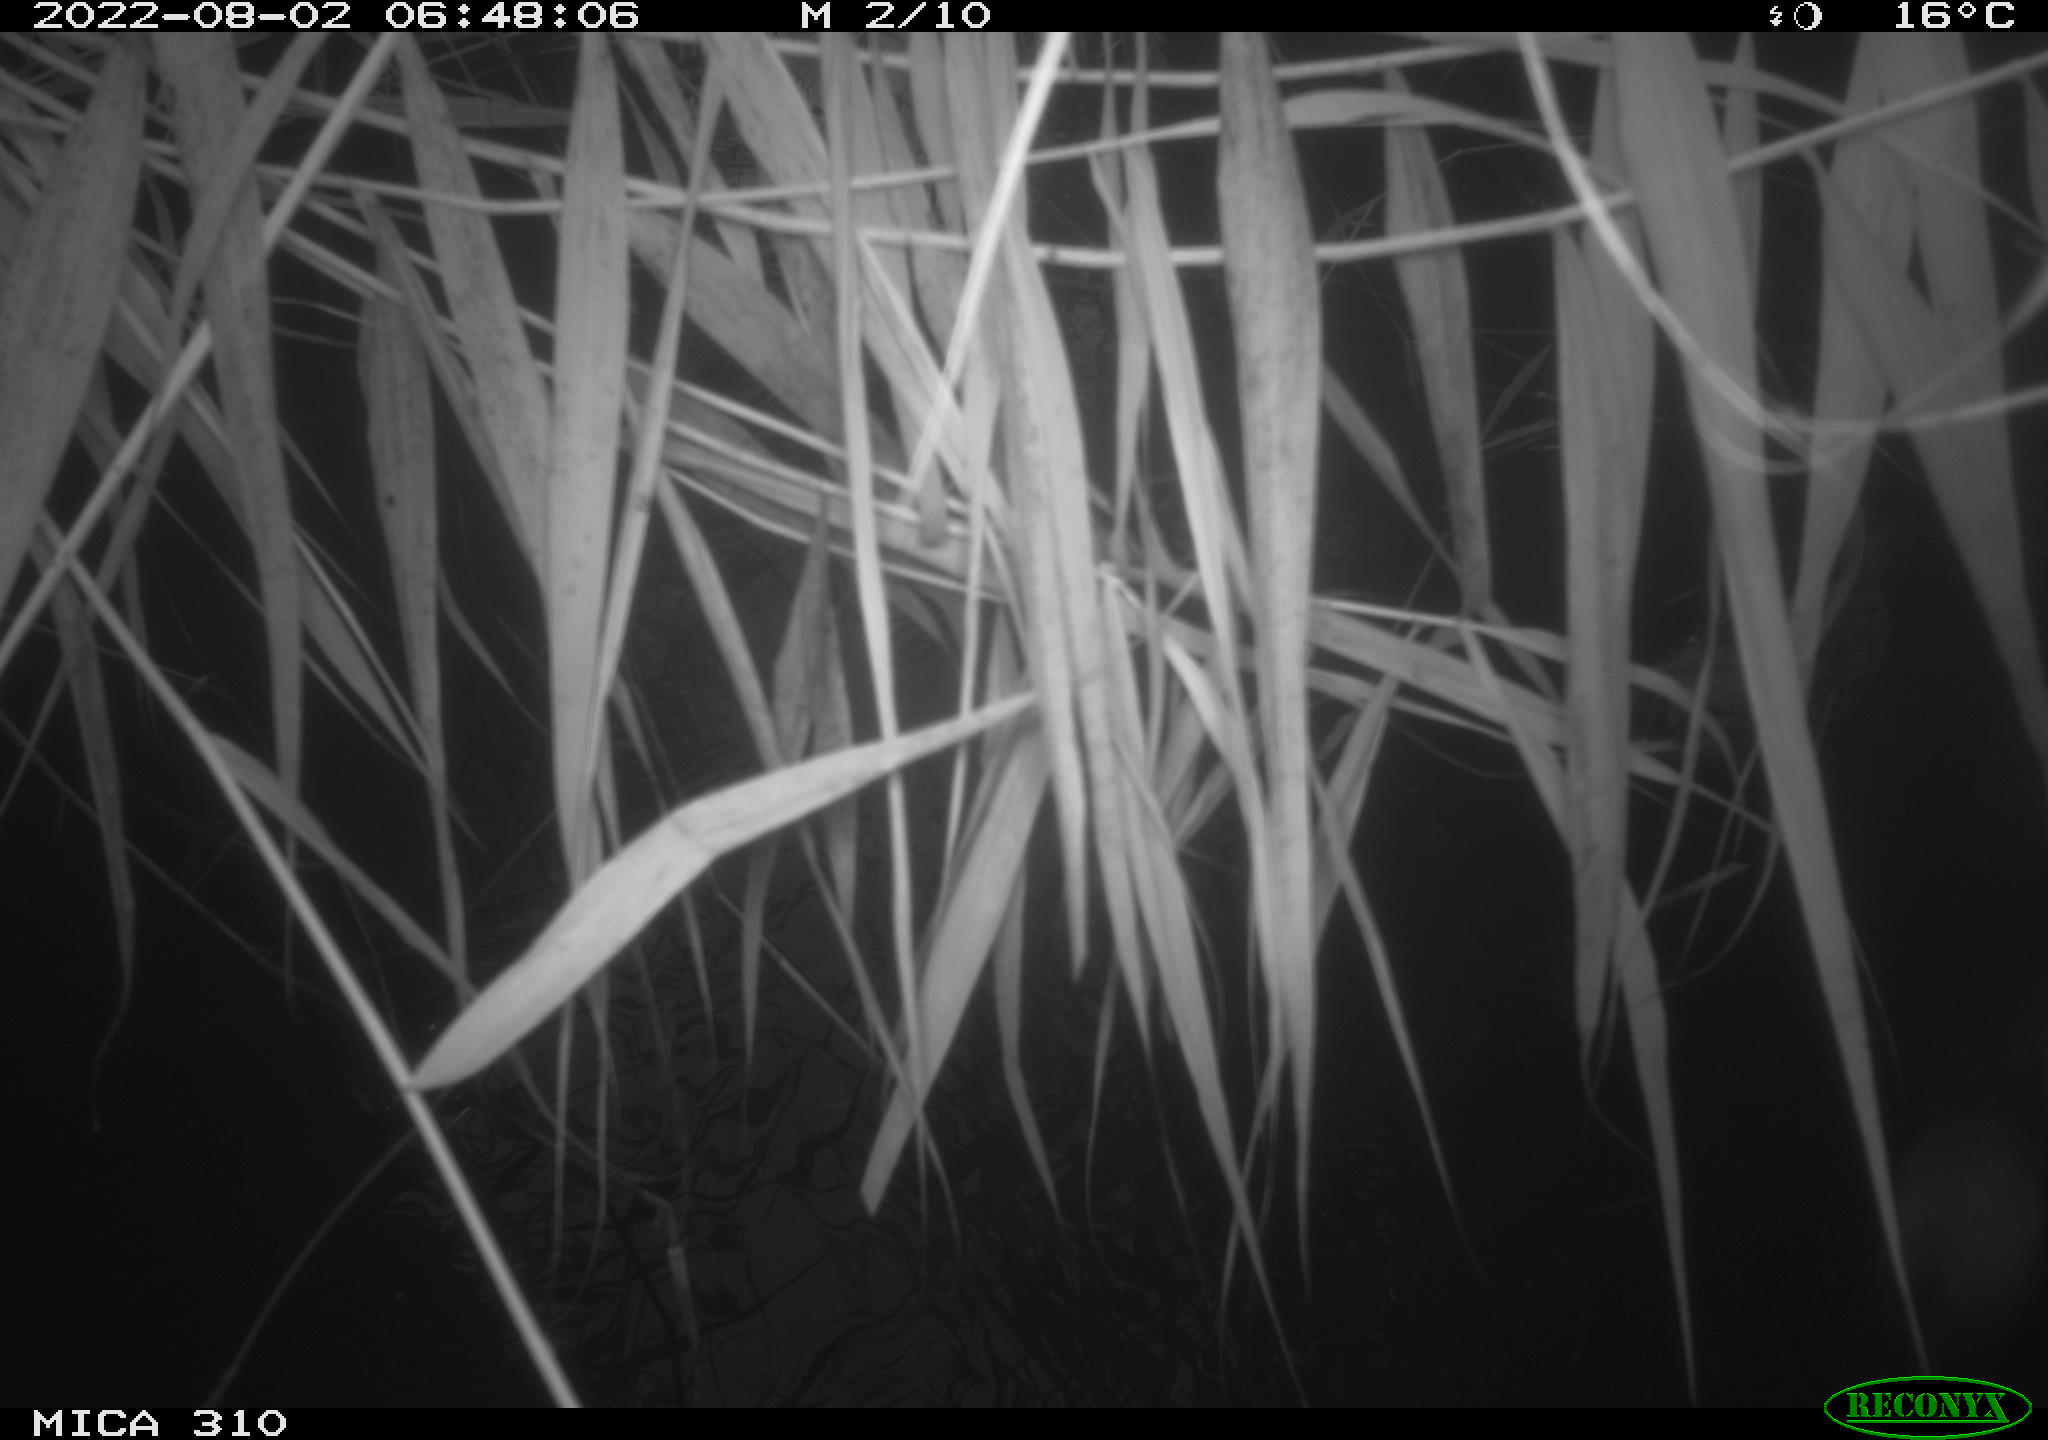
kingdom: Animalia
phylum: Chordata
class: Aves
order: Anseriformes
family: Anatidae
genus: Anas
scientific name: Anas platyrhynchos
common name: Mallard
